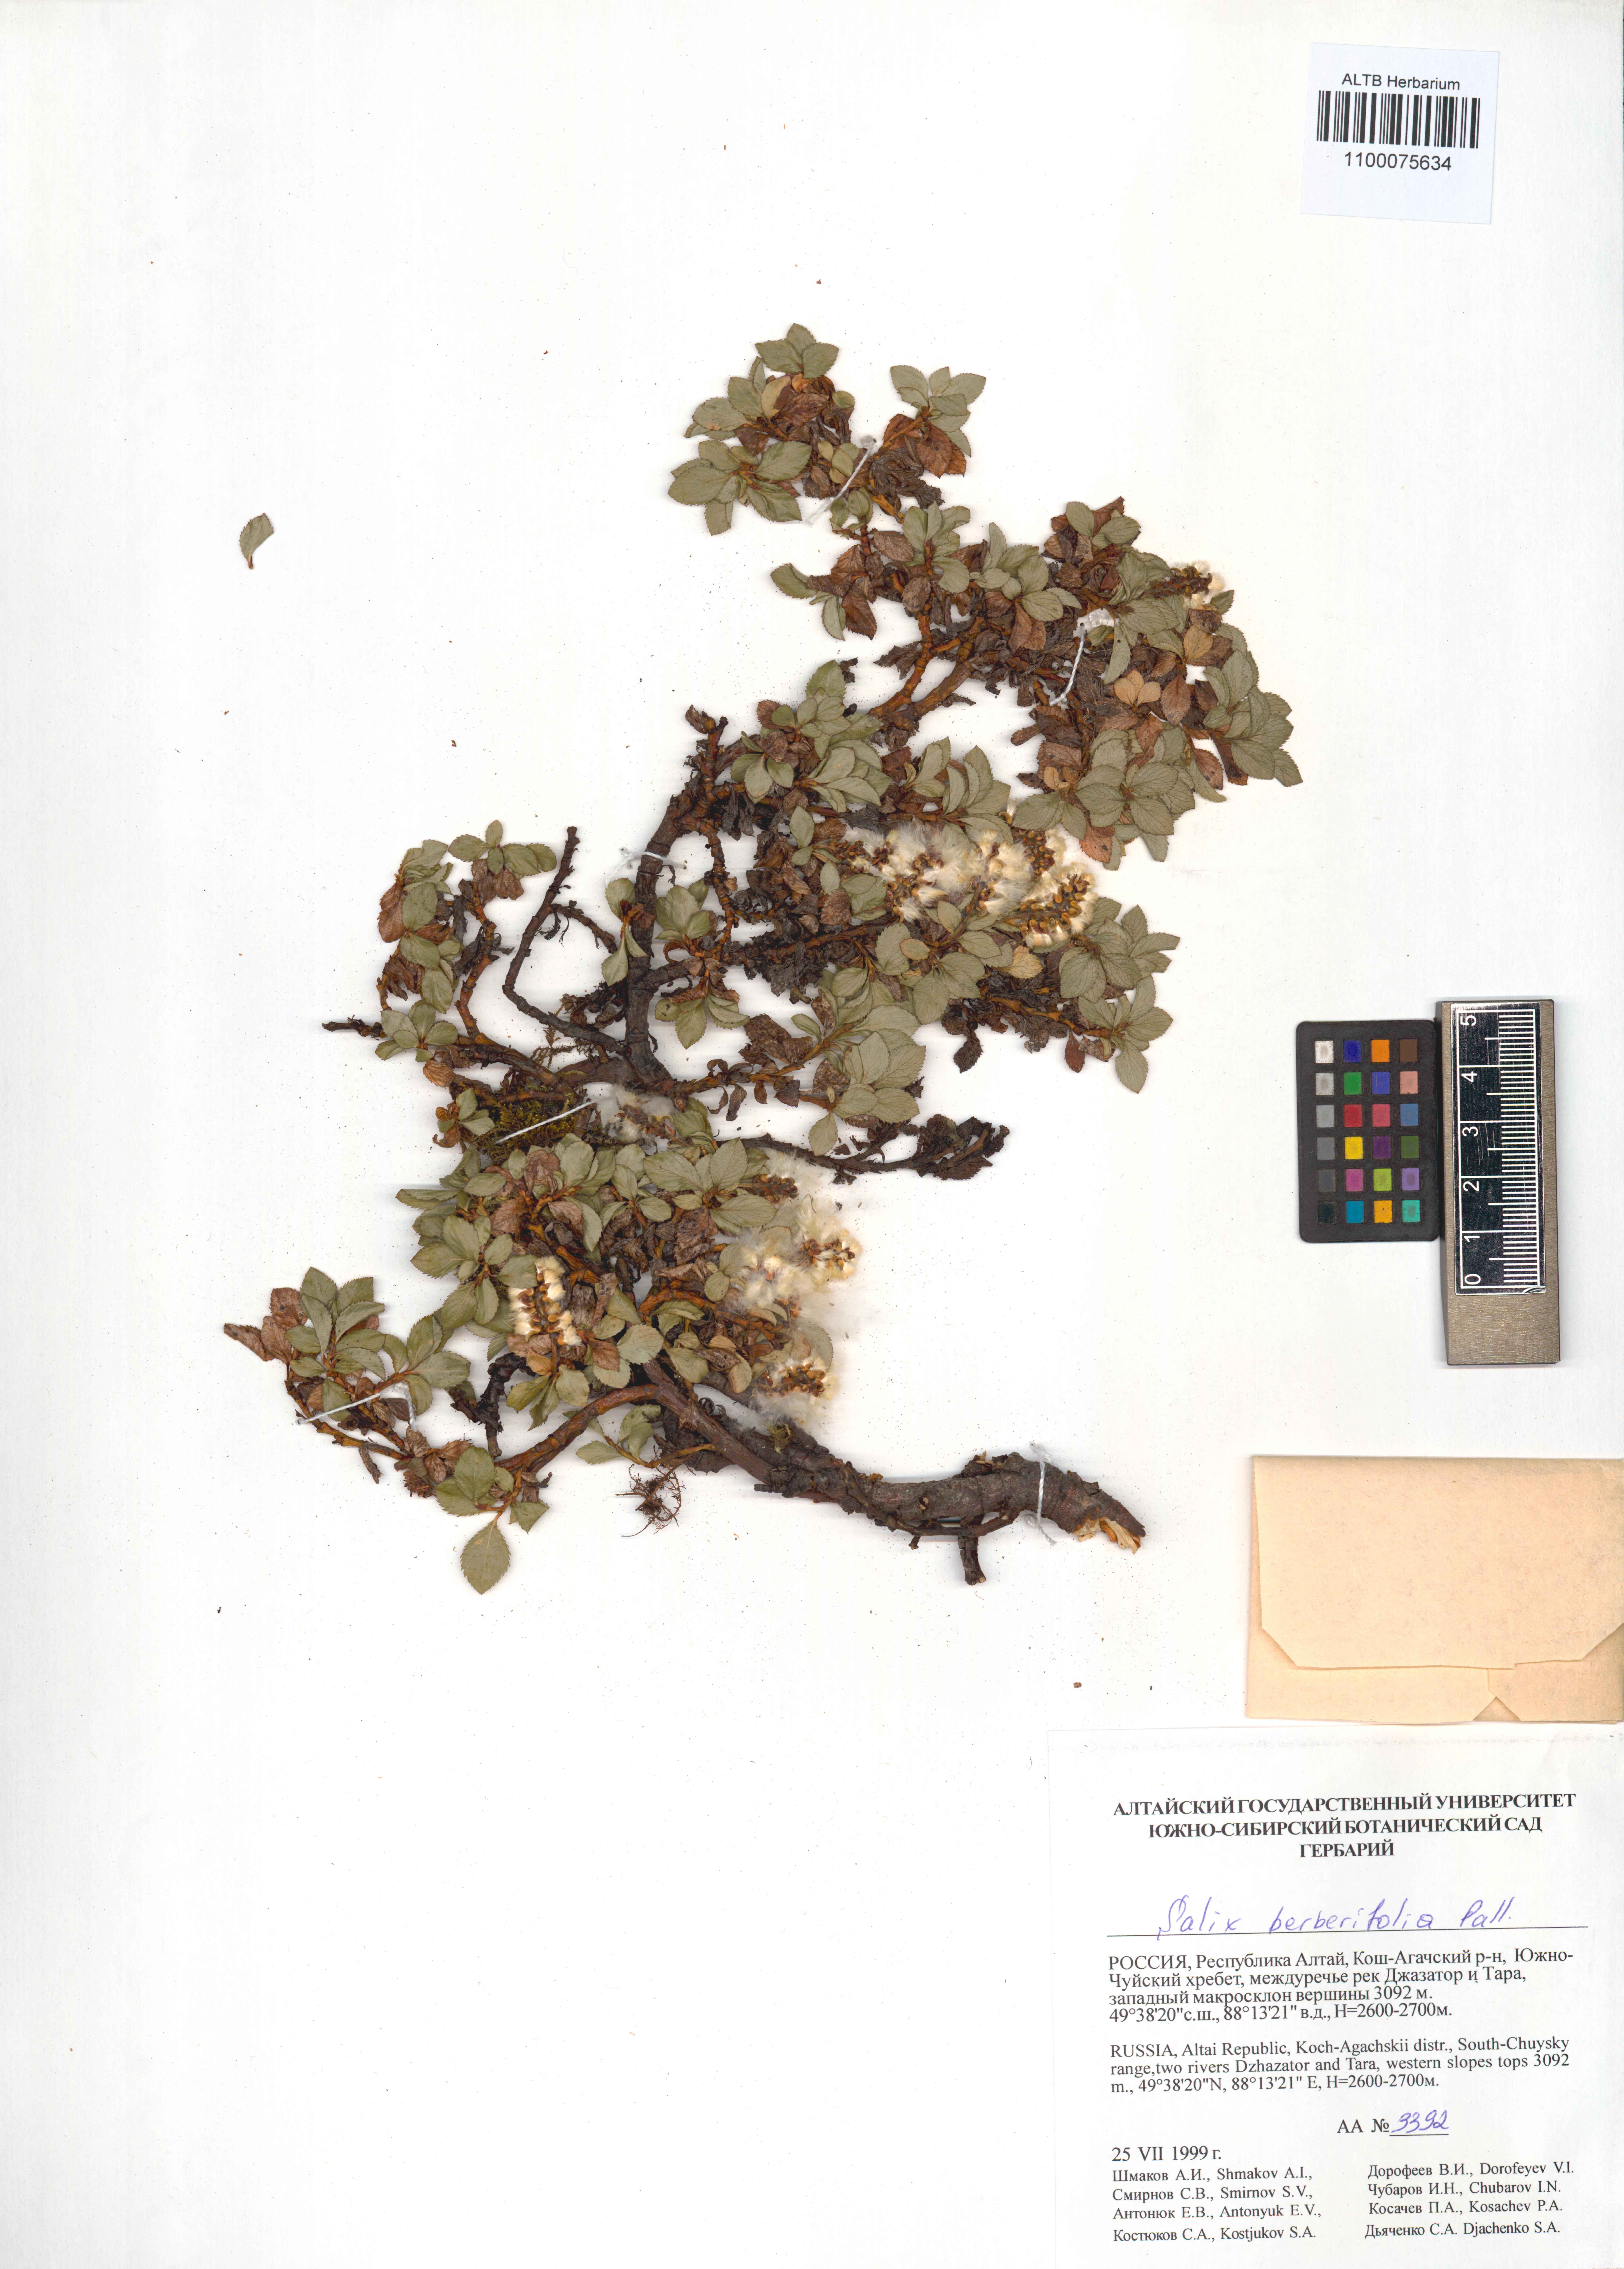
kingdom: Plantae
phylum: Tracheophyta
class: Magnoliopsida
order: Malpighiales
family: Salicaceae
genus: Salix
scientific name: Salix berberifolia
